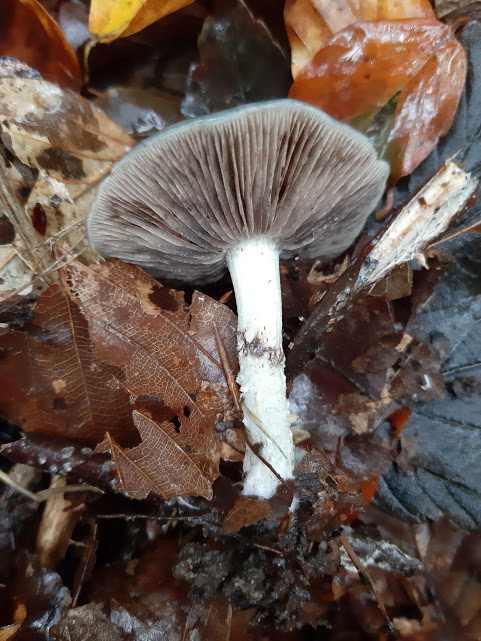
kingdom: Fungi
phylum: Basidiomycota
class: Agaricomycetes
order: Agaricales
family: Strophariaceae
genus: Stropharia
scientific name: Stropharia cyanea
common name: blågrøn bredblad
